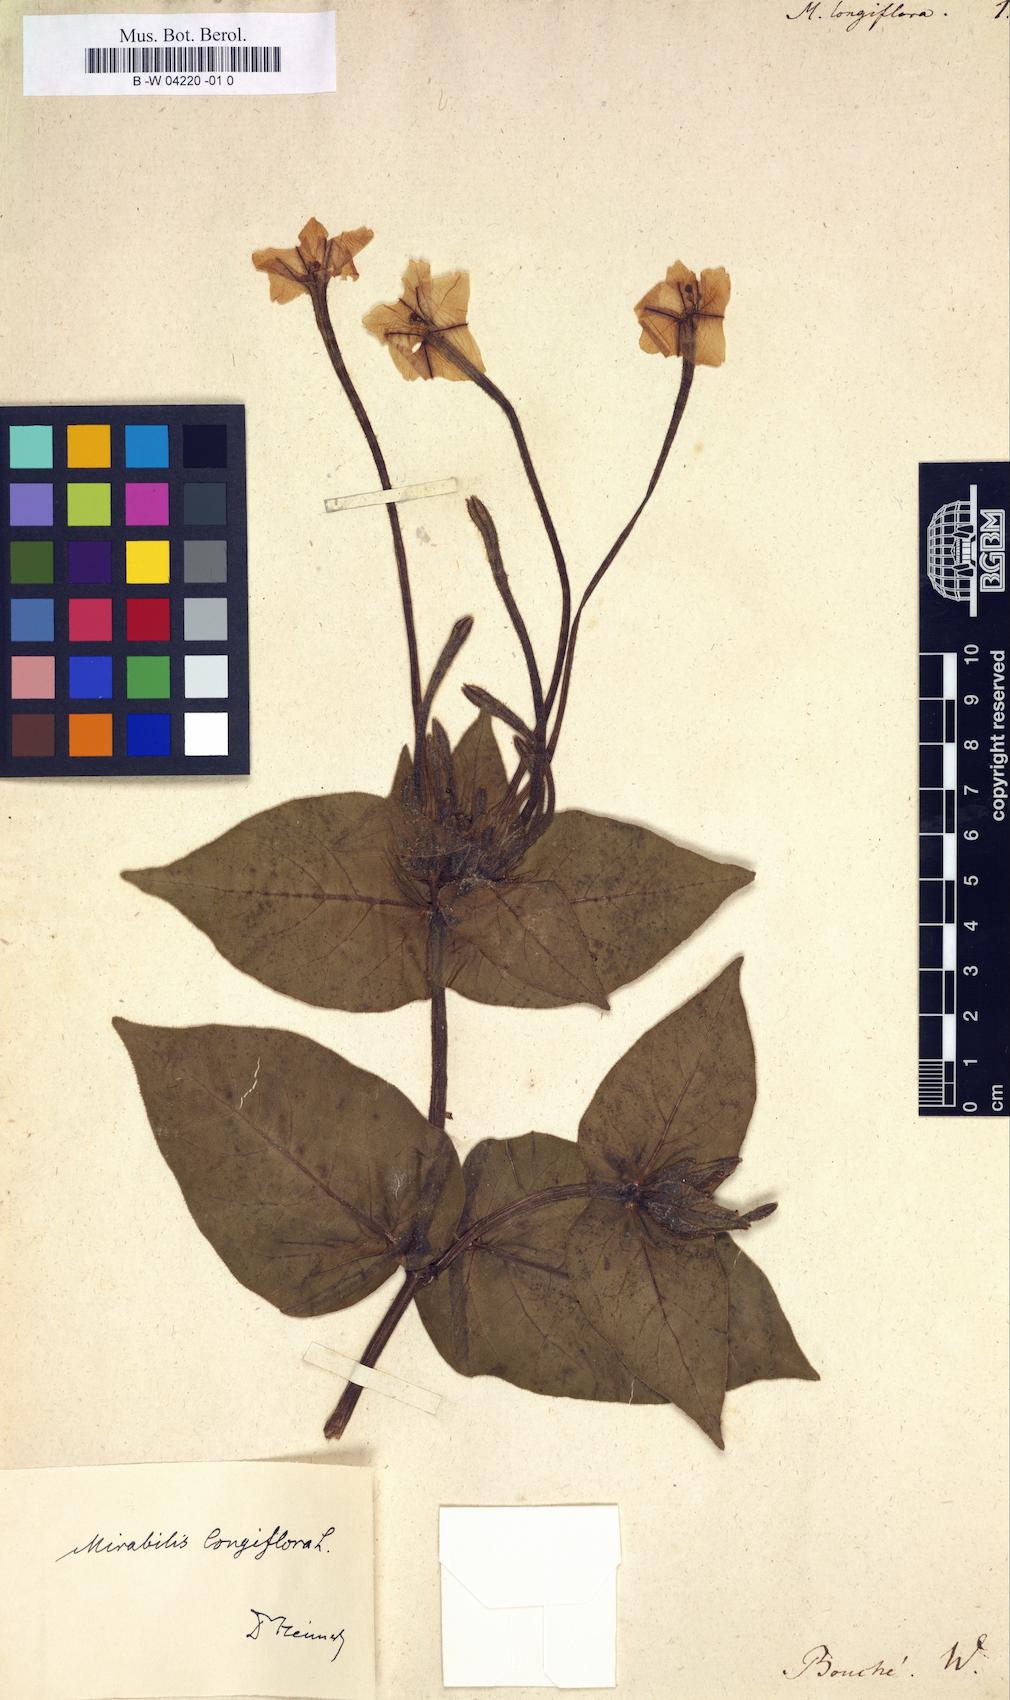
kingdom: Plantae
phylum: Tracheophyta
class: Magnoliopsida
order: Caryophyllales
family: Nyctaginaceae
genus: Mirabilis
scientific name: Mirabilis longiflora
